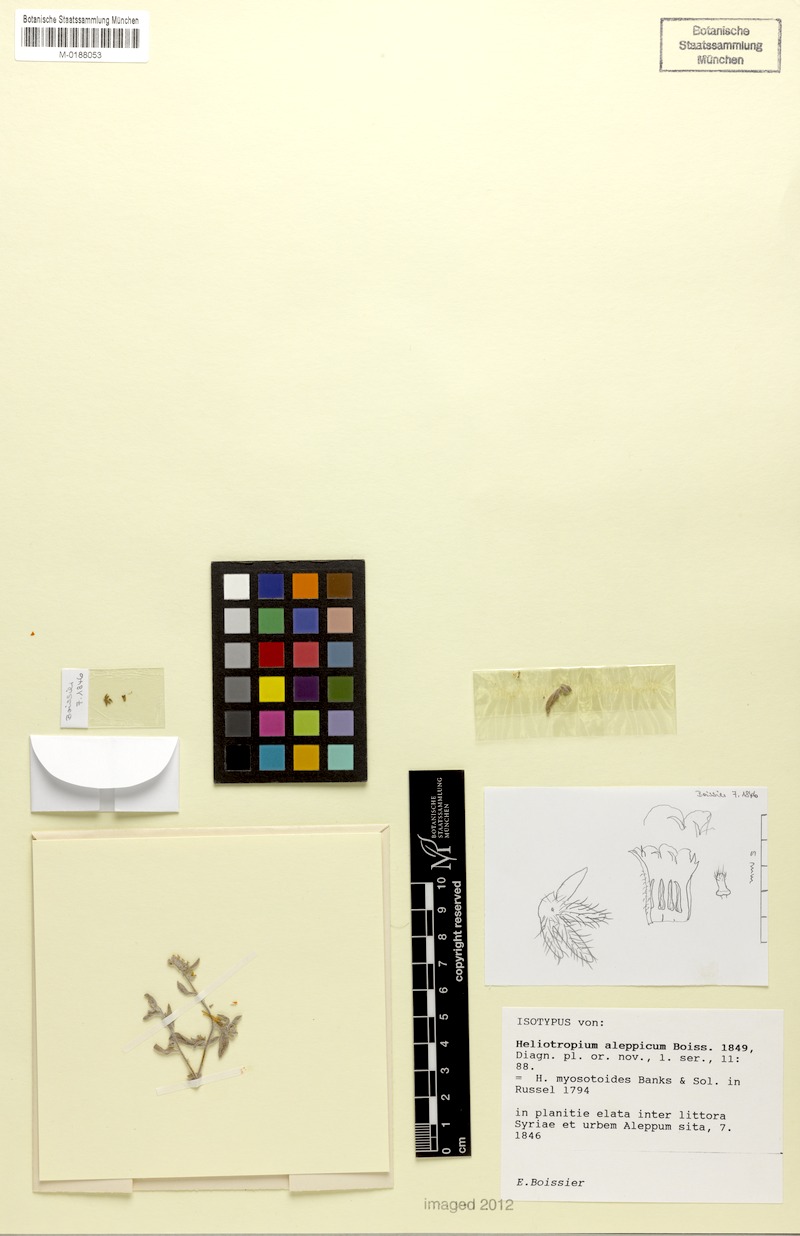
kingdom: Plantae
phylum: Tracheophyta
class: Magnoliopsida
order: Boraginales
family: Heliotropiaceae
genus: Heliotropium
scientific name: Heliotropium myosotoides
